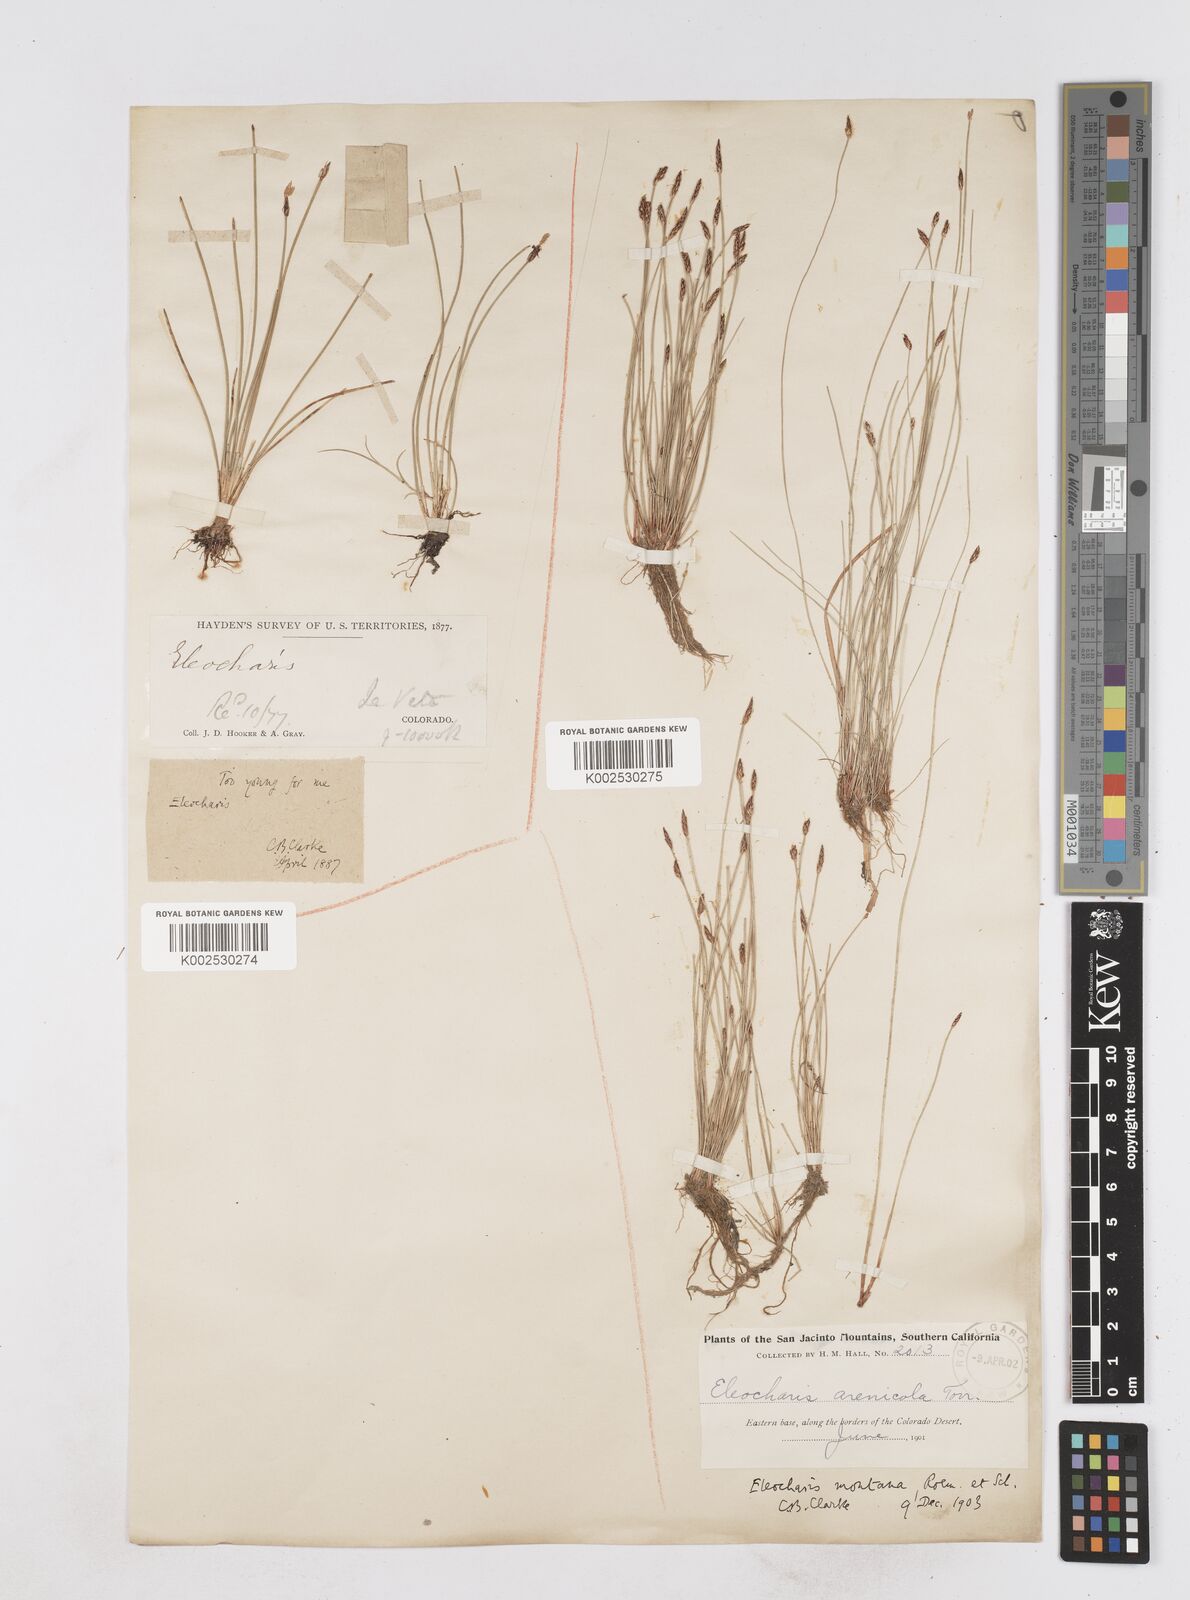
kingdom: Plantae
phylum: Tracheophyta
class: Liliopsida
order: Poales
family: Cyperaceae
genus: Eleocharis
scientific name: Eleocharis macounii
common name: Macoun's spikerush
